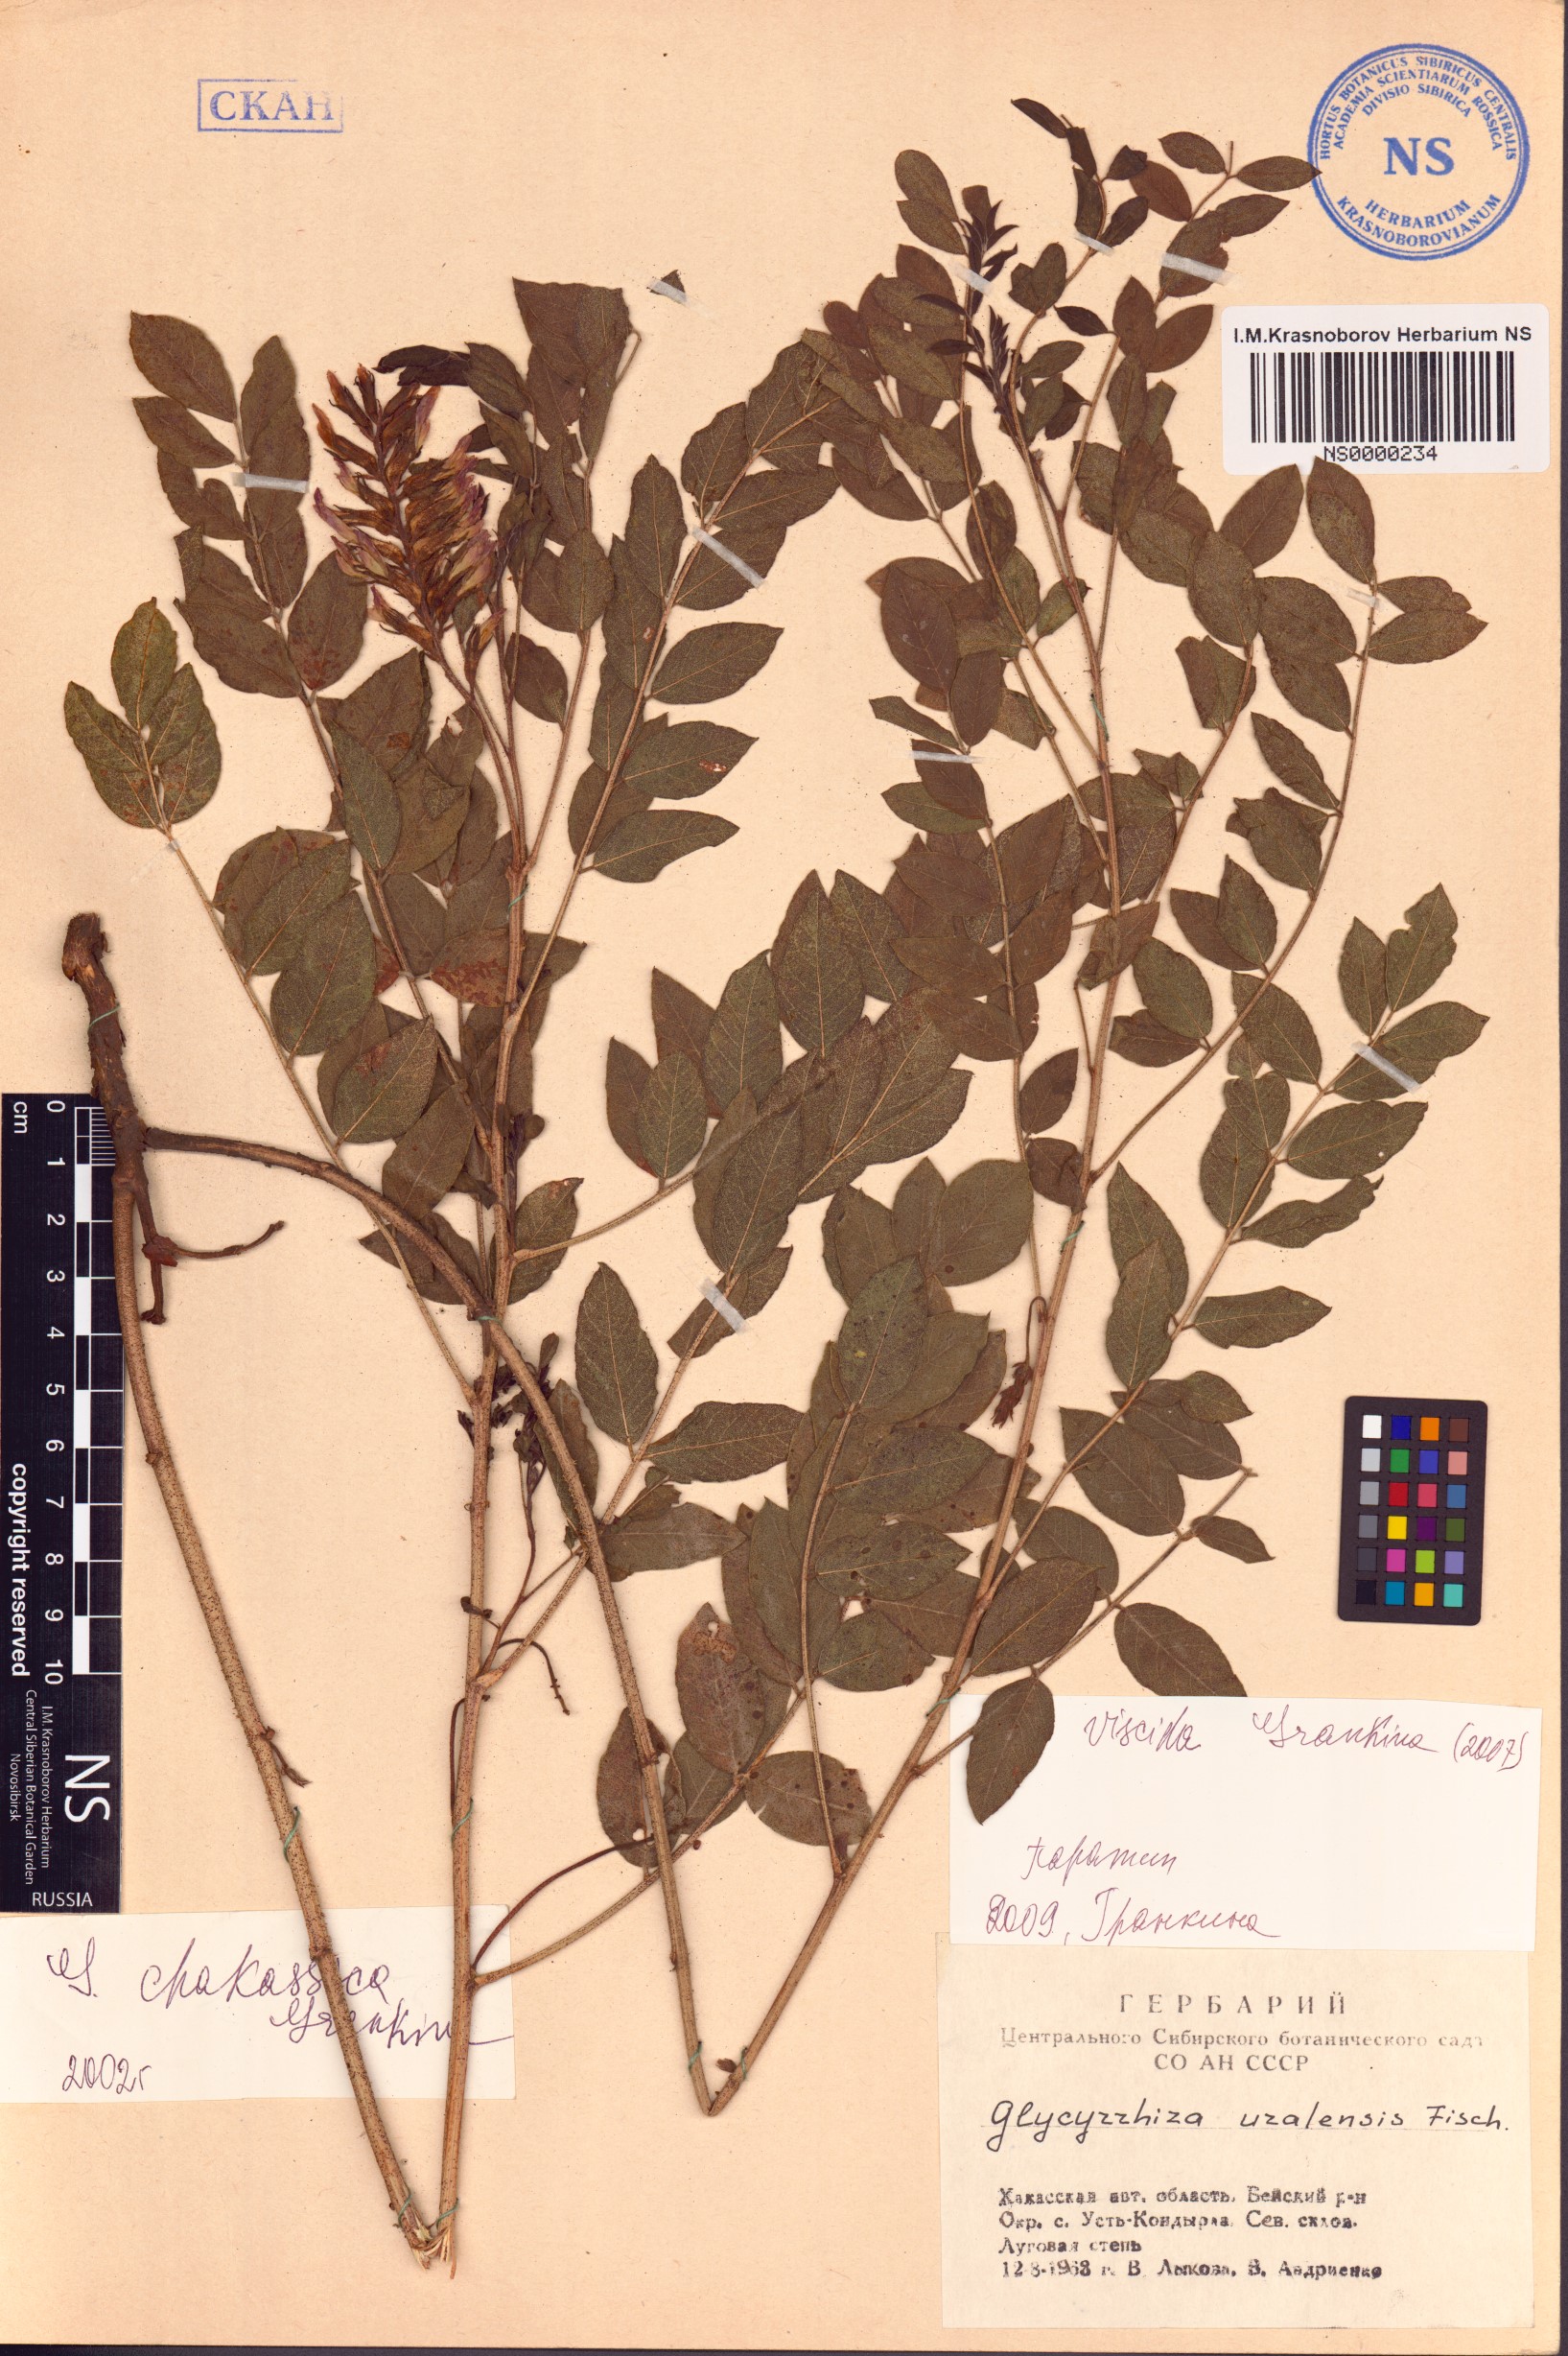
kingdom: Plantae
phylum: Tracheophyta
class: Magnoliopsida
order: Fabales
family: Fabaceae
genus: Glycyrrhiza
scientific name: Glycyrrhiza uralensis
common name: Chinese licorice
